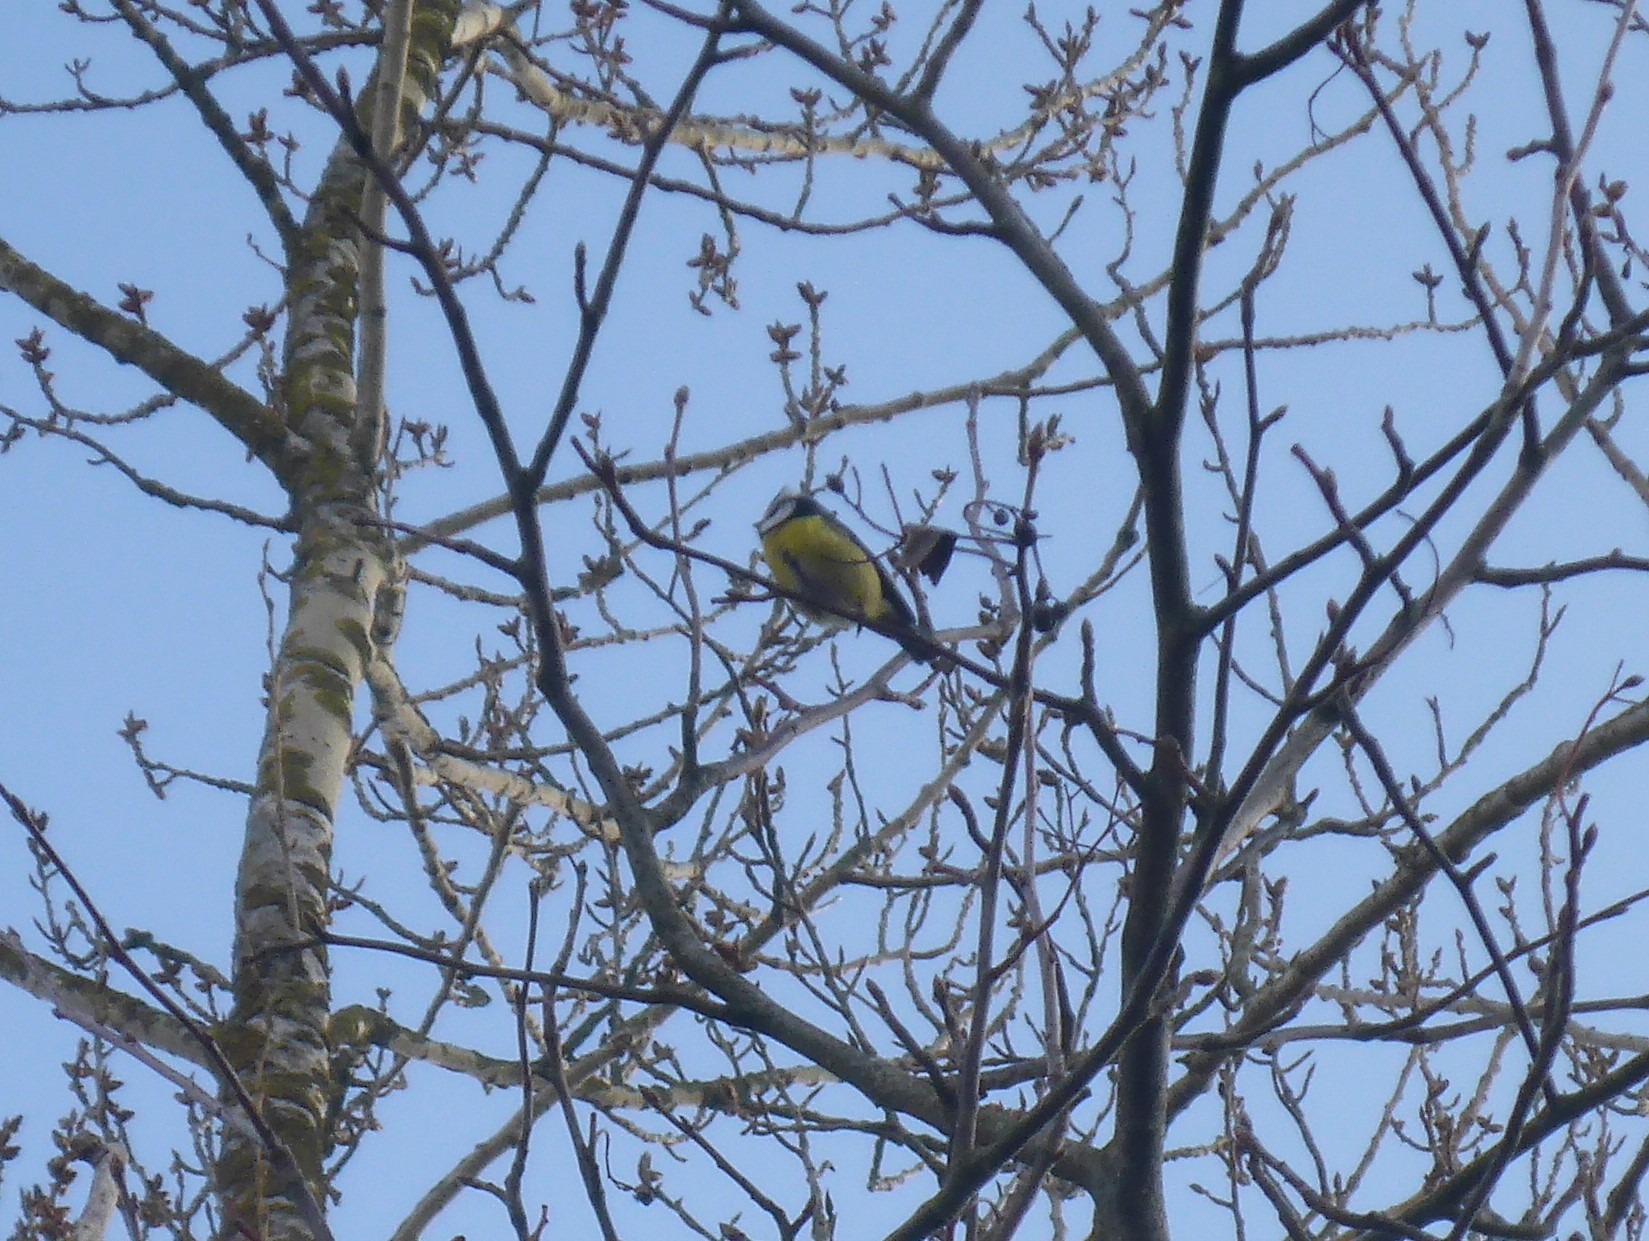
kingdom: Animalia
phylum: Chordata
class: Aves
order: Passeriformes
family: Paridae
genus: Cyanistes
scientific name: Cyanistes caeruleus
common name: Blåmejse
